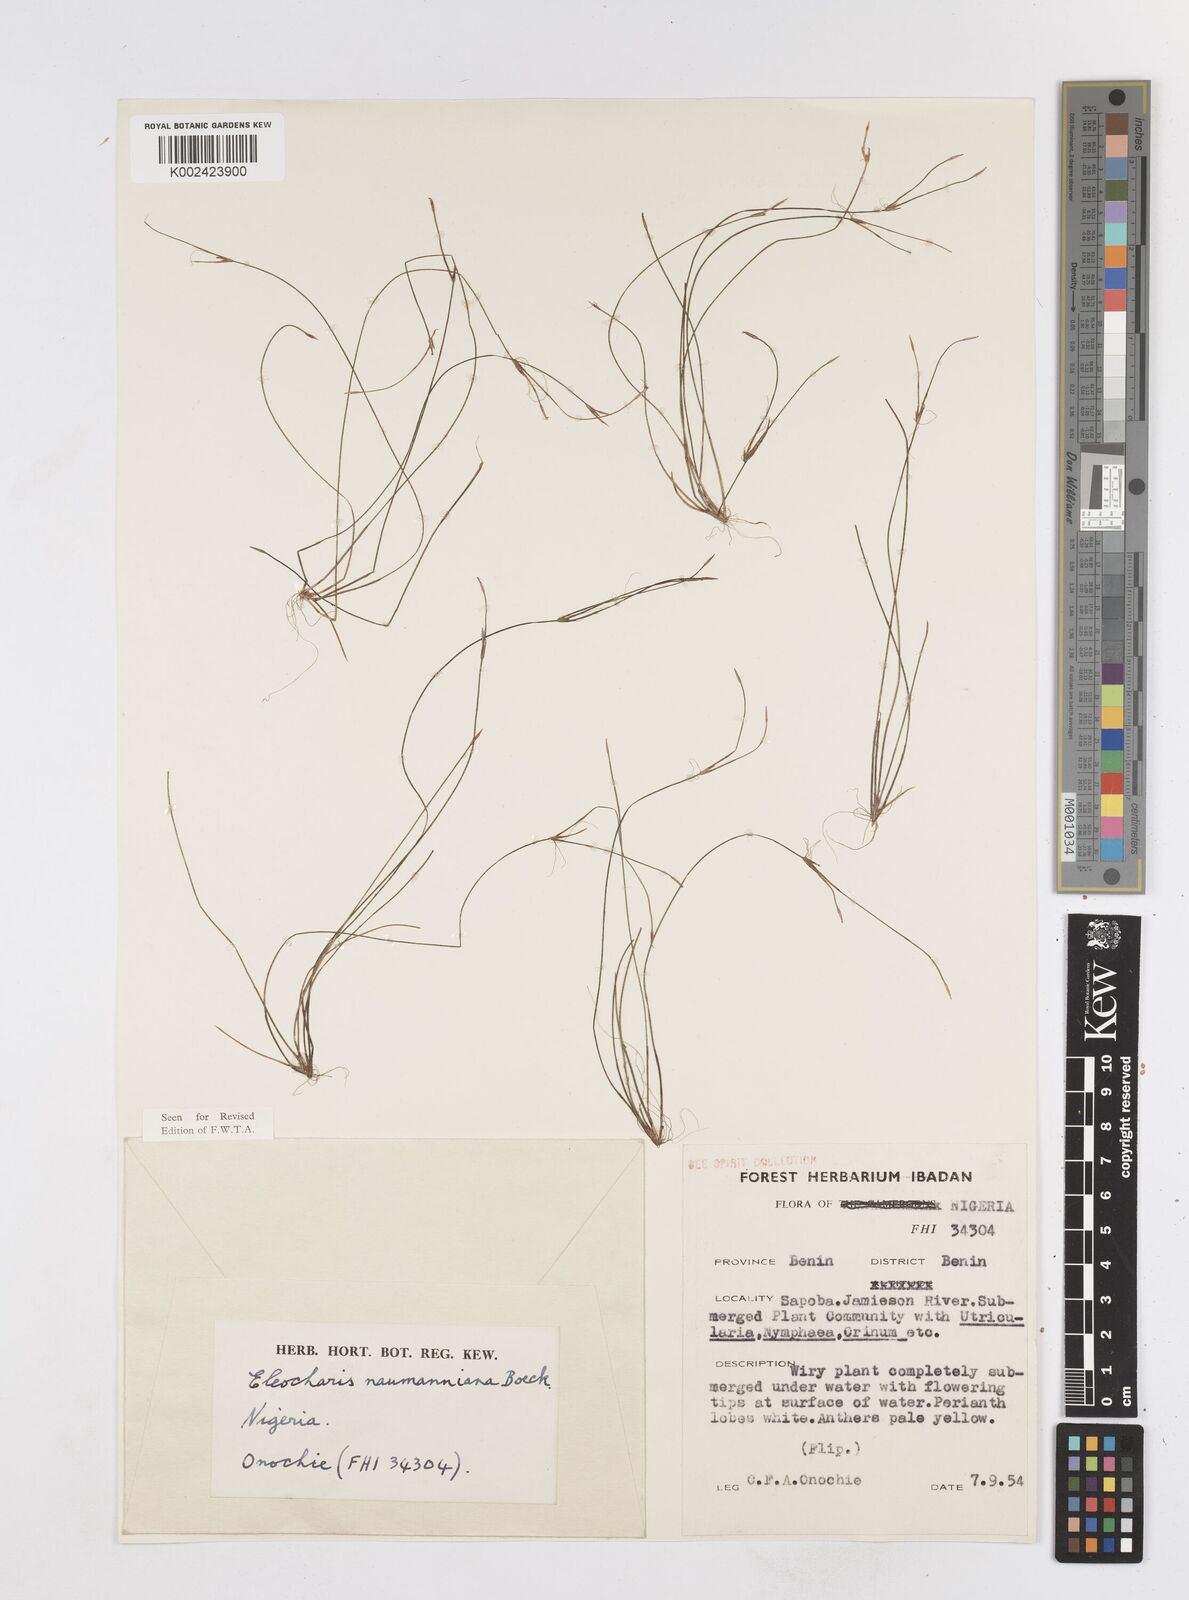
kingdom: Plantae
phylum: Tracheophyta
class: Liliopsida
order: Poales
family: Cyperaceae
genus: Eleocharis
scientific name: Eleocharis naumanniana
